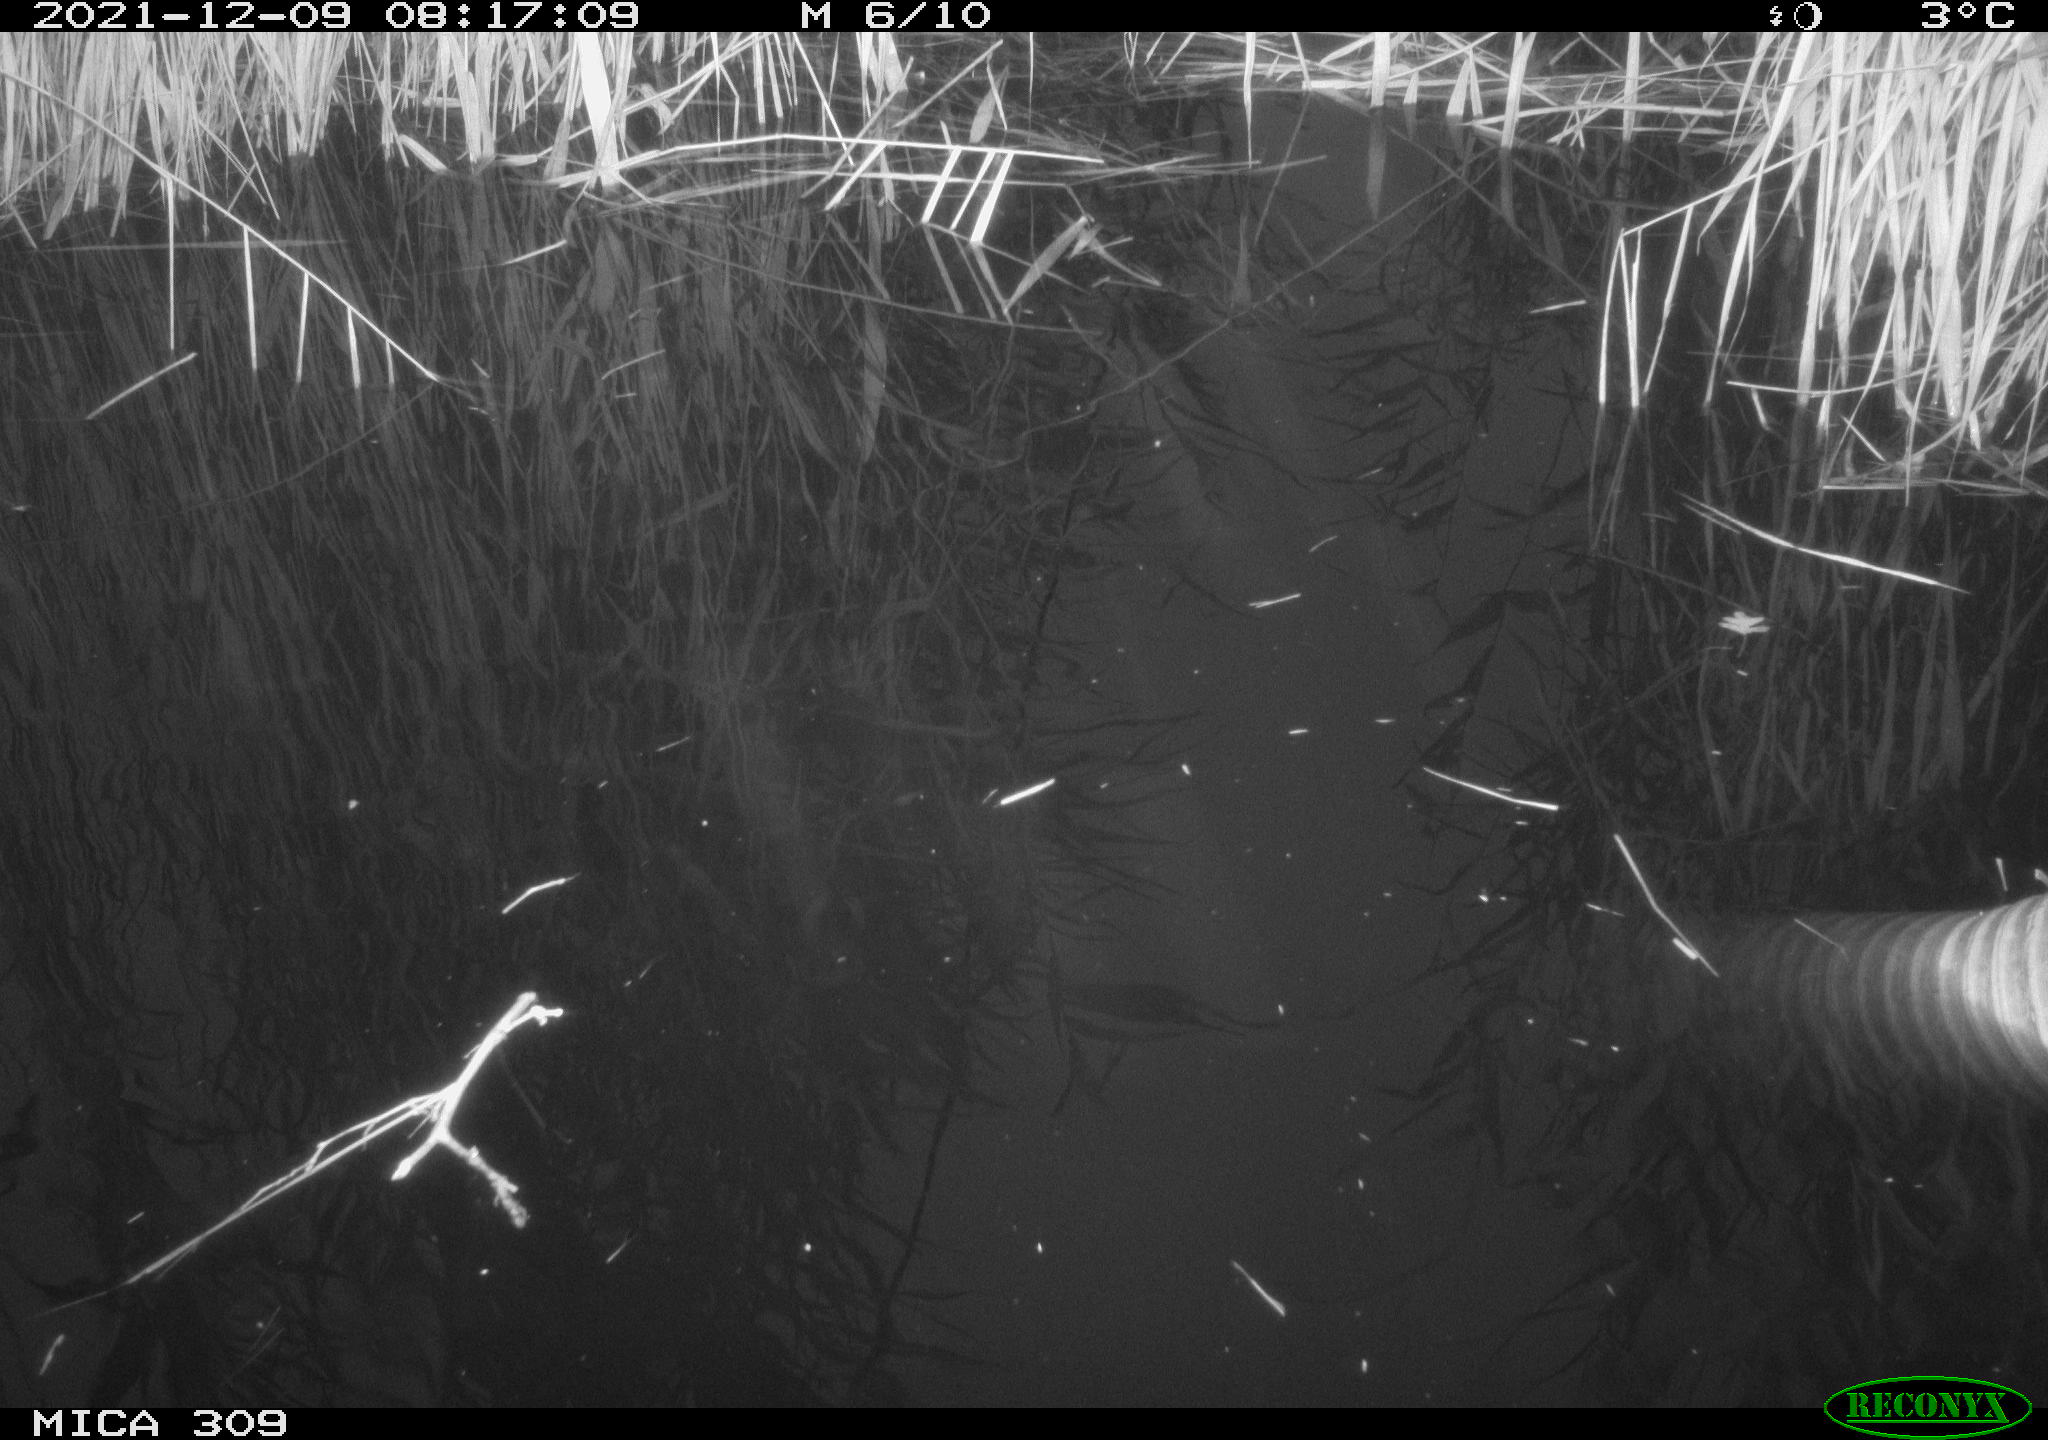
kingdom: Animalia
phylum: Chordata
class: Aves
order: Gruiformes
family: Rallidae
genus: Gallinula
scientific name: Gallinula chloropus
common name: Common moorhen
